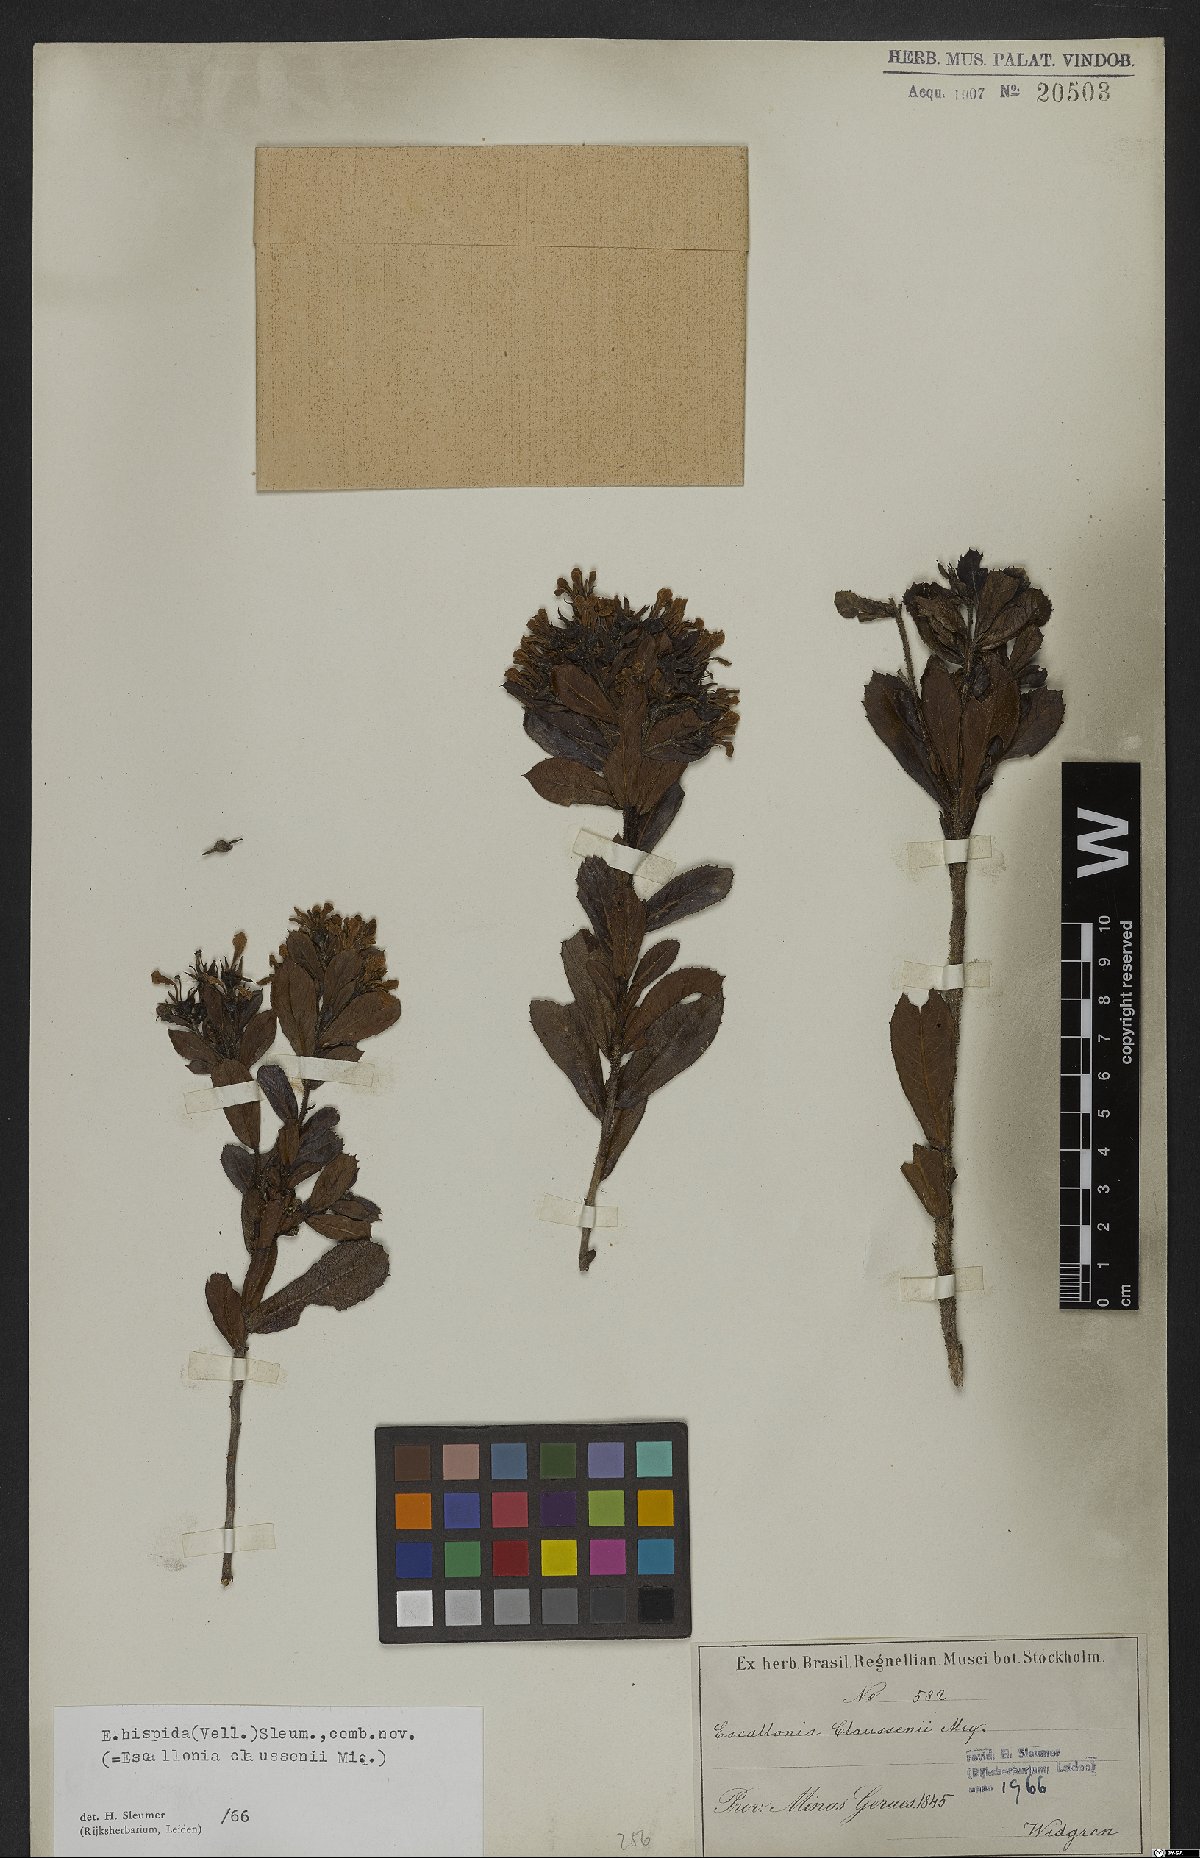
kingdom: Plantae
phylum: Tracheophyta
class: Magnoliopsida
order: Escalloniales
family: Escalloniaceae
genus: Escallonia
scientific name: Escallonia hispida
